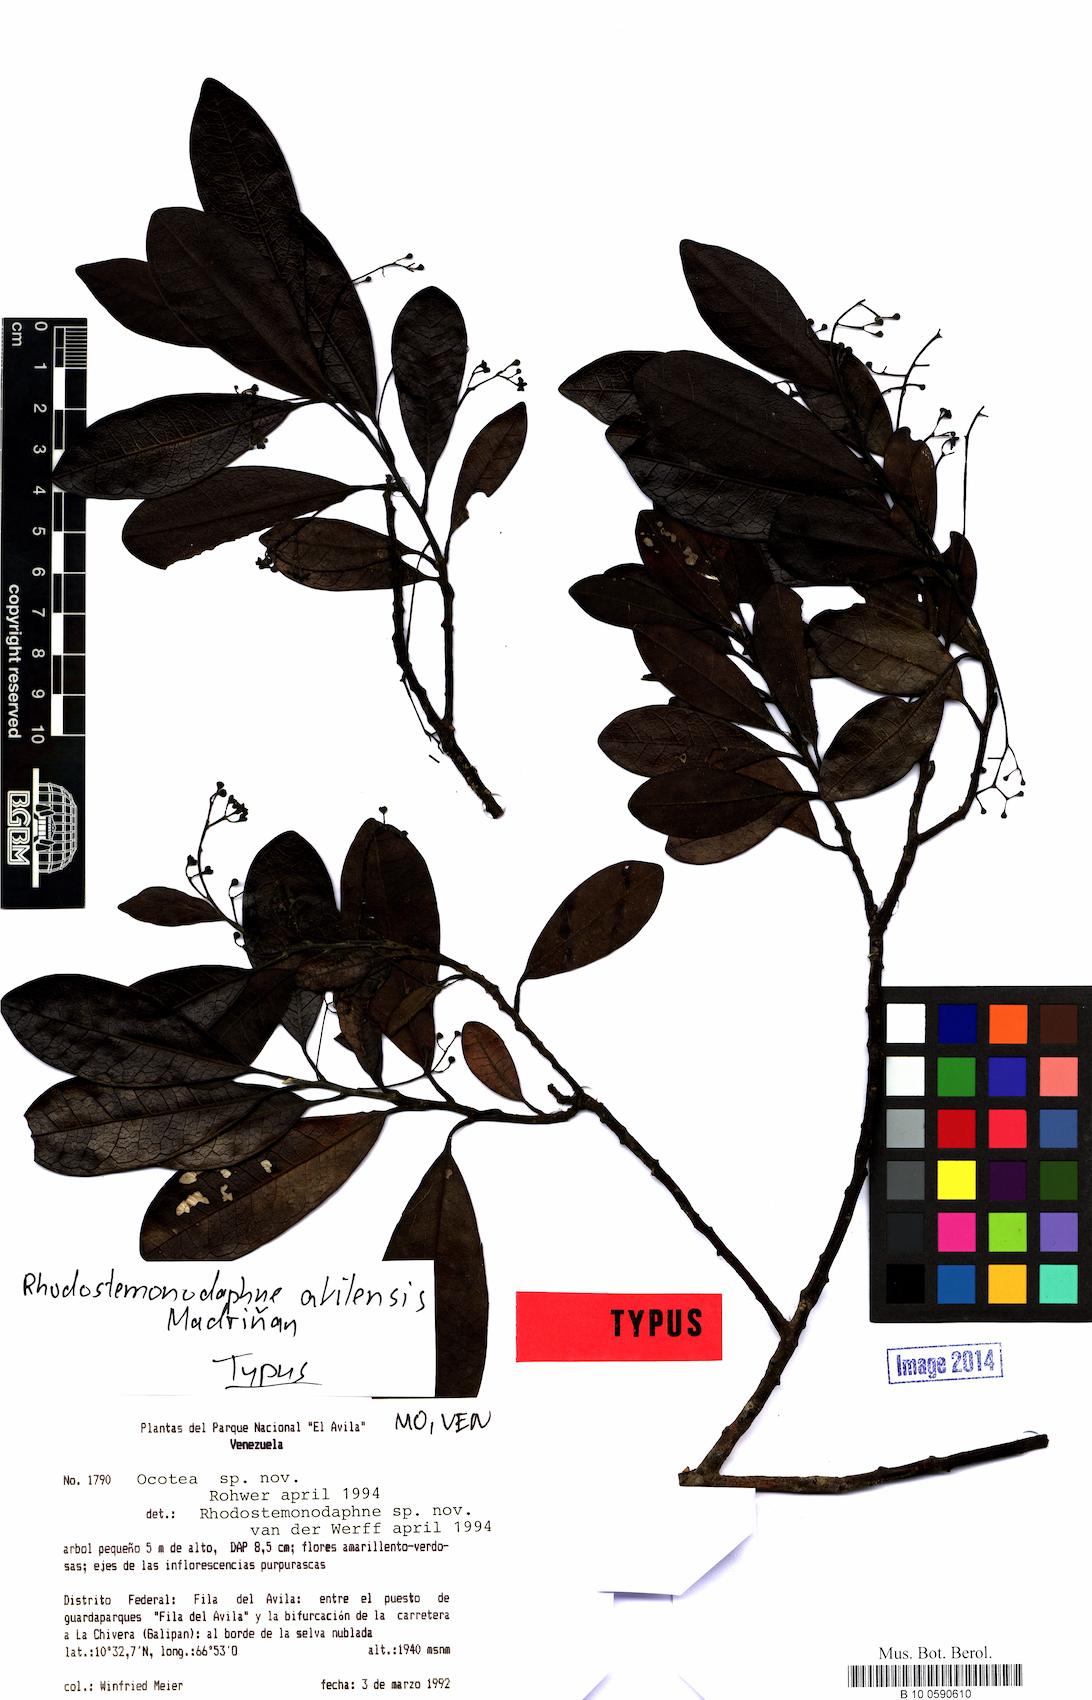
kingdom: Plantae
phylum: Tracheophyta
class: Magnoliopsida
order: Laurales
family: Lauraceae
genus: Rhodostemonodaphne
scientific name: Rhodostemonodaphne avilensis
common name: El avila rhodostemonodaphne
